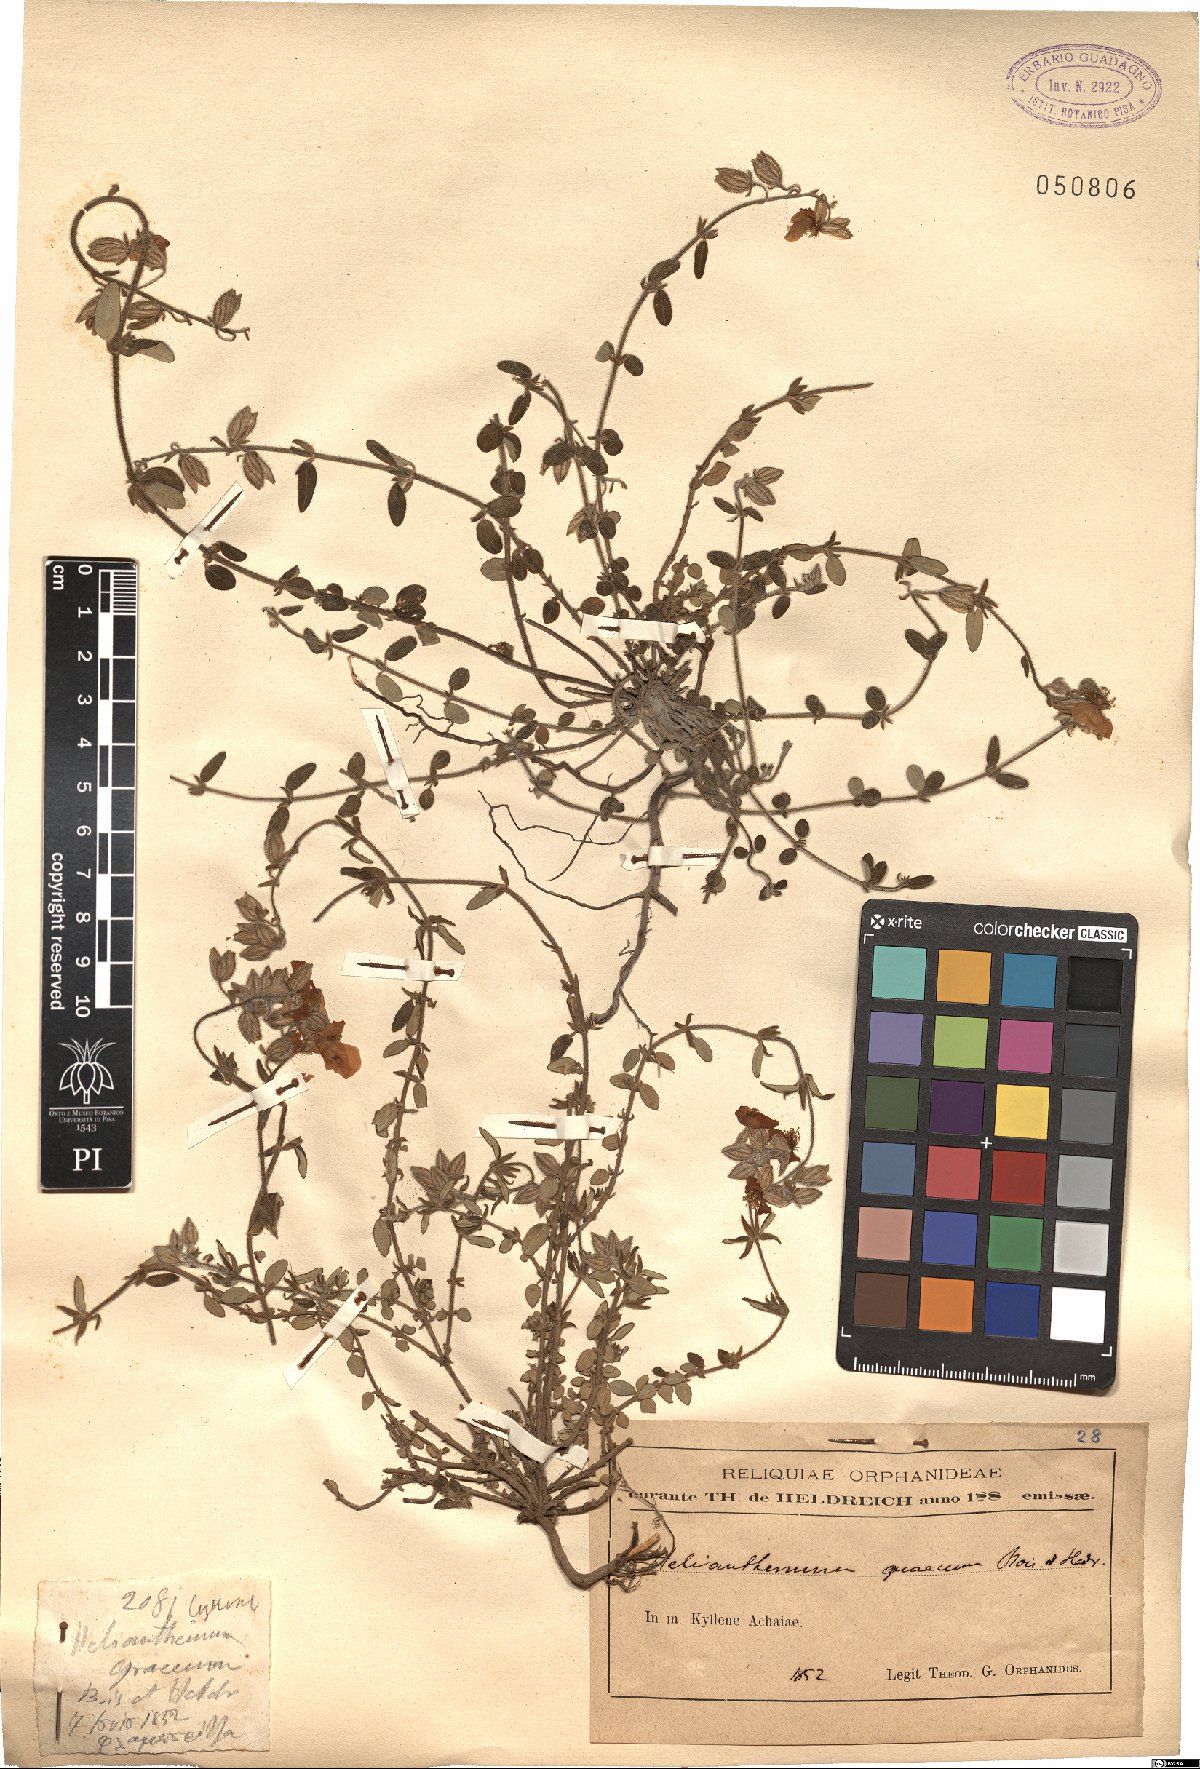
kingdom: Plantae
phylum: Tracheophyta
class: Magnoliopsida
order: Malvales
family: Cistaceae
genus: Helianthemum
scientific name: Helianthemum nummularium
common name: Common rock-rose
